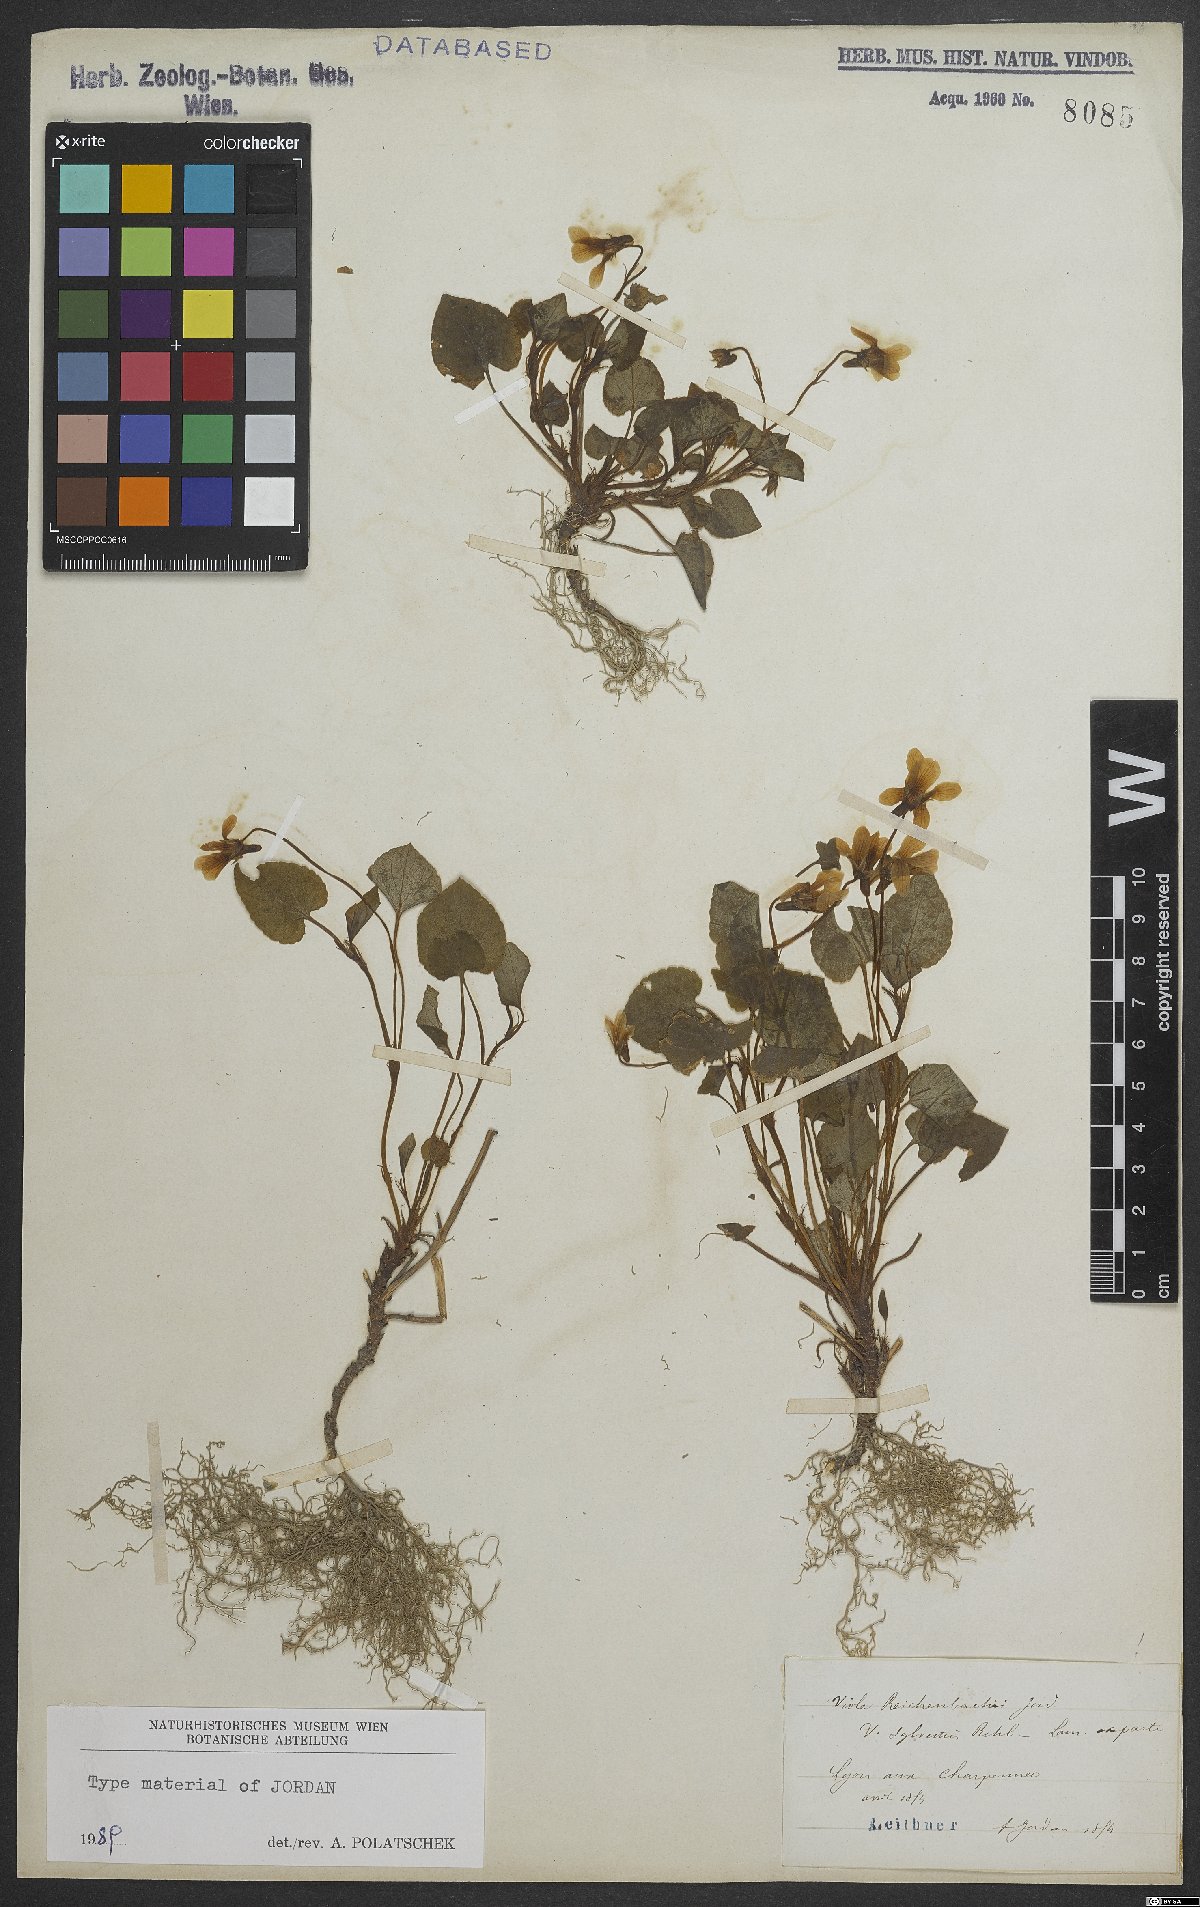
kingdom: Plantae
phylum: Tracheophyta
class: Magnoliopsida
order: Malpighiales
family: Violaceae
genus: Viola
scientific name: Viola reichenbachiana
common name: Early dog-violet
